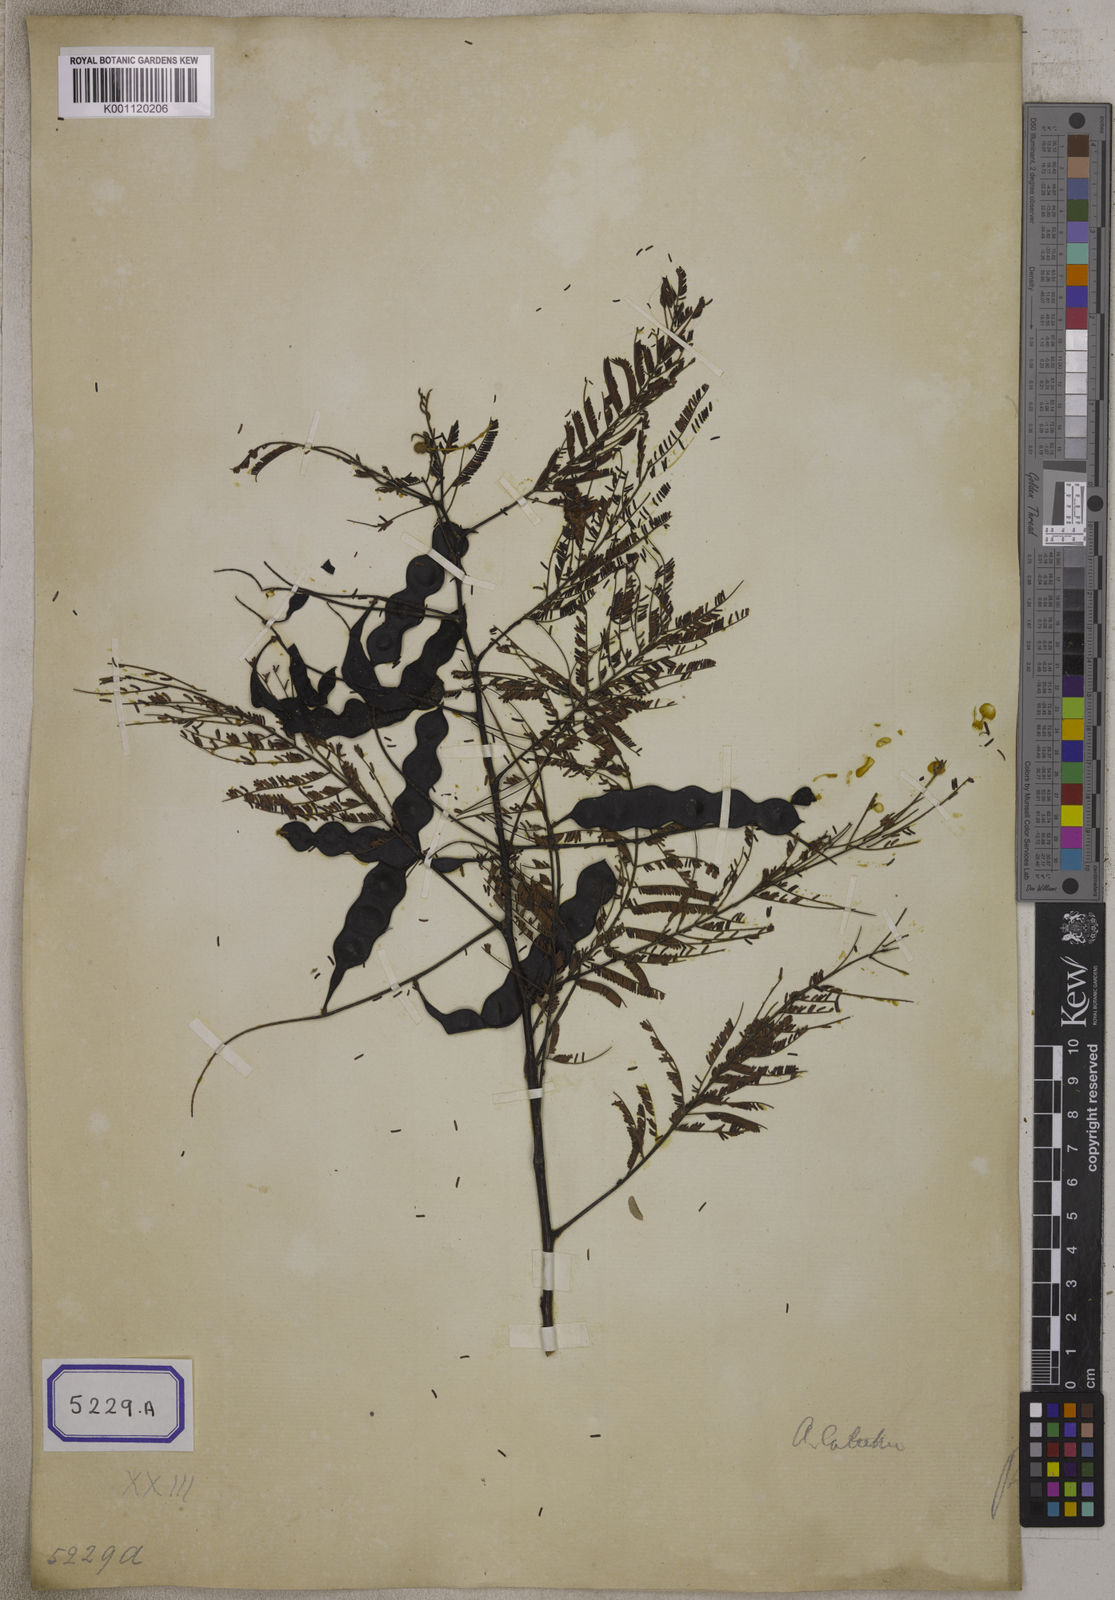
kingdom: Plantae
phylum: Tracheophyta
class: Magnoliopsida
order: Fabales
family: Fabaceae
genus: Senegalia
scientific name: Senegalia catechu
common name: Black cutch
